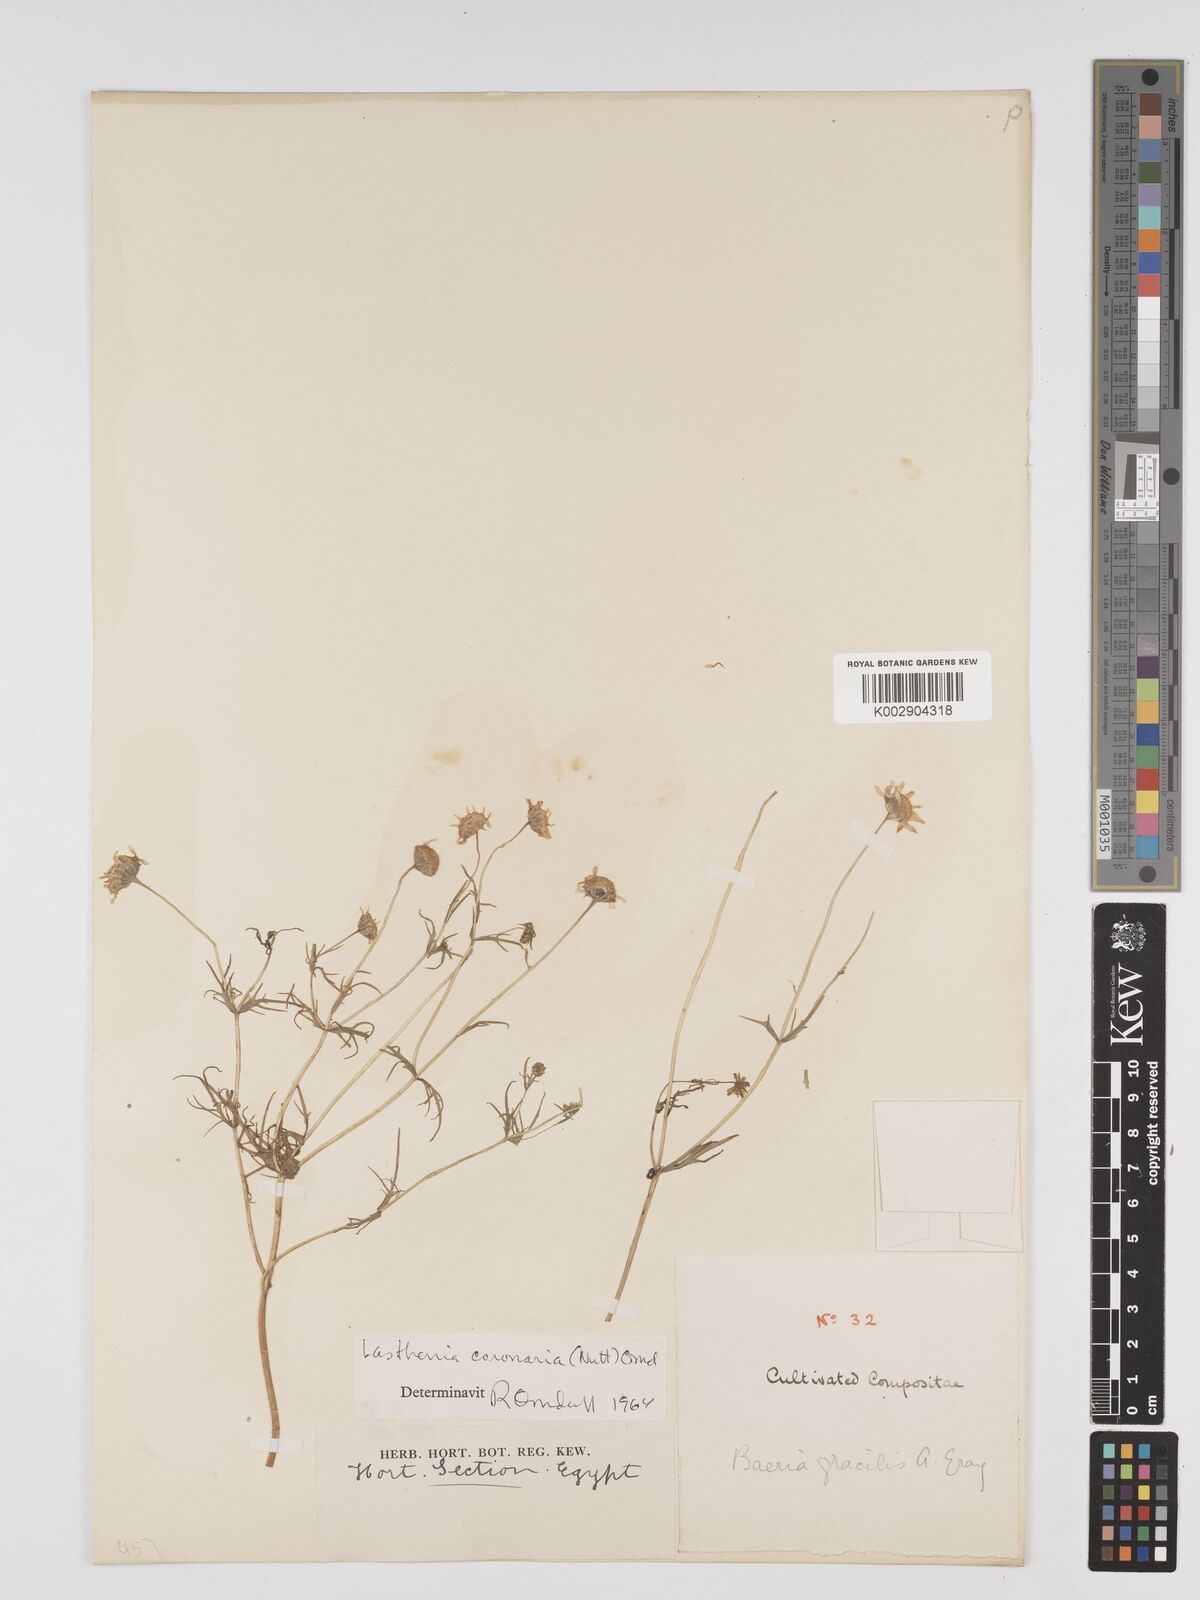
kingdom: Plantae
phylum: Tracheophyta
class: Magnoliopsida
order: Asterales
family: Asteraceae
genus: Lasthenia
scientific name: Lasthenia coronaria
